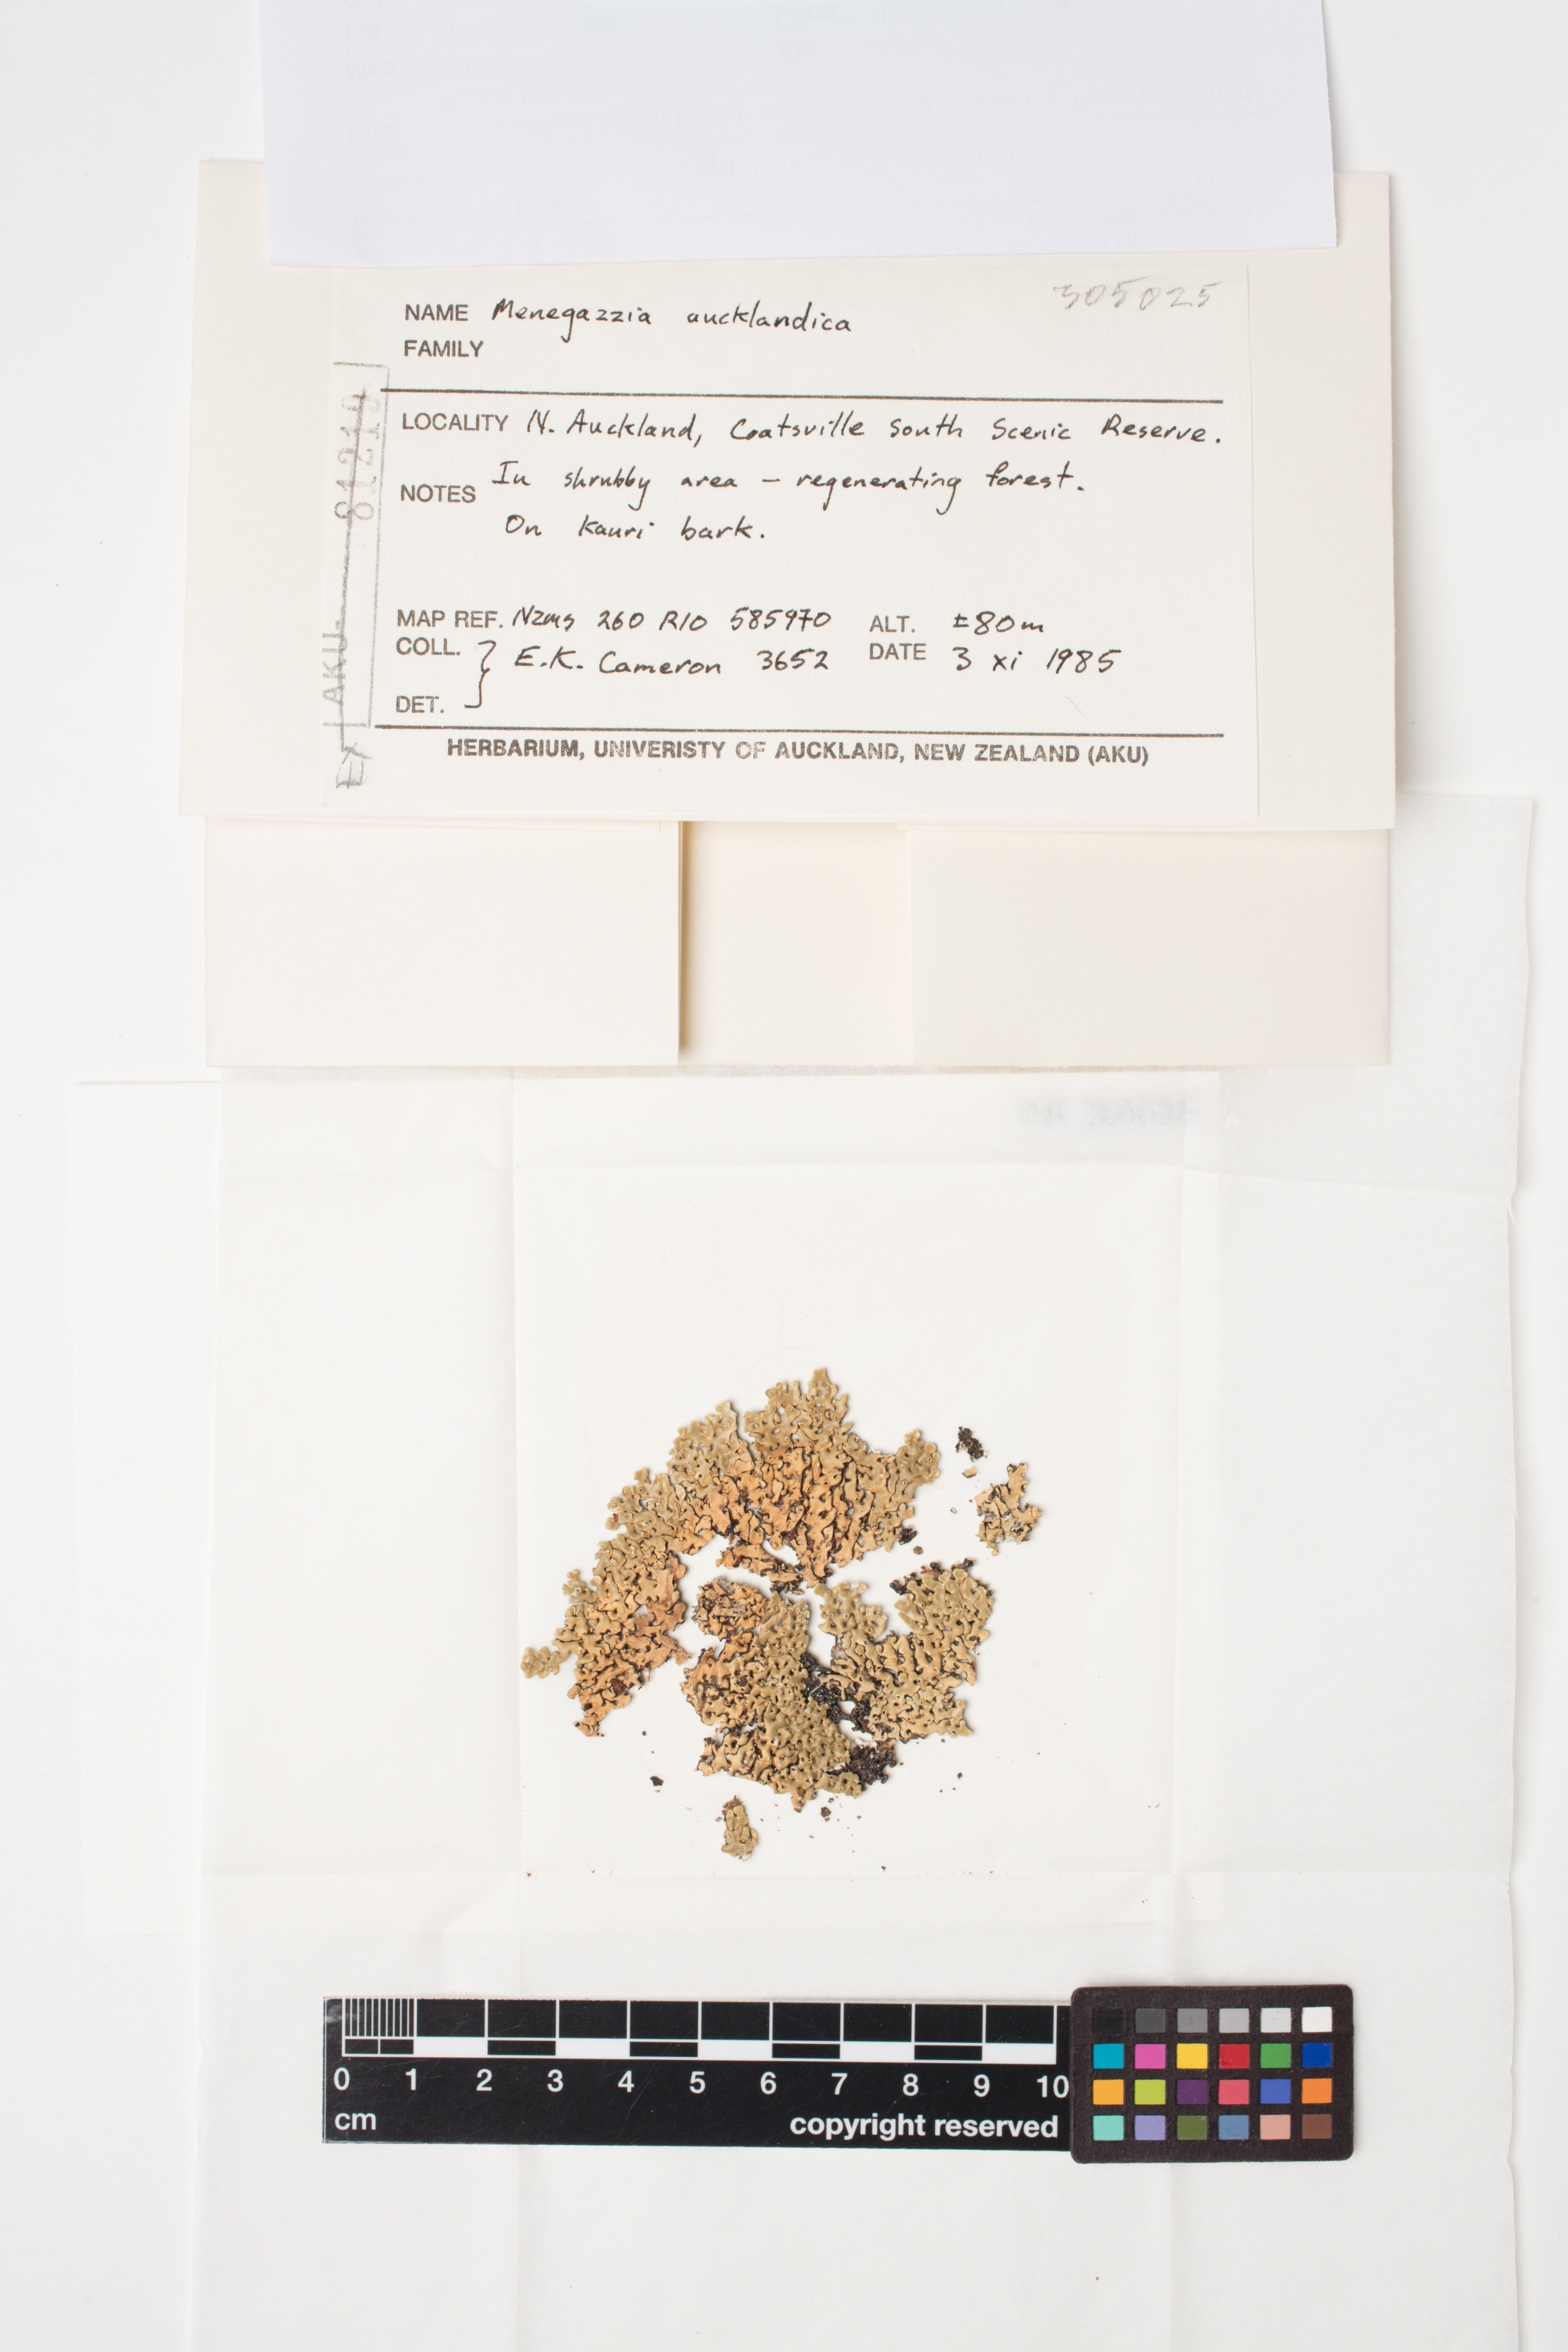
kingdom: Fungi
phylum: Ascomycota
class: Lecanoromycetes
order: Lecanorales
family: Parmeliaceae
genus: Menegazzia
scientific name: Menegazzia aucklandica
